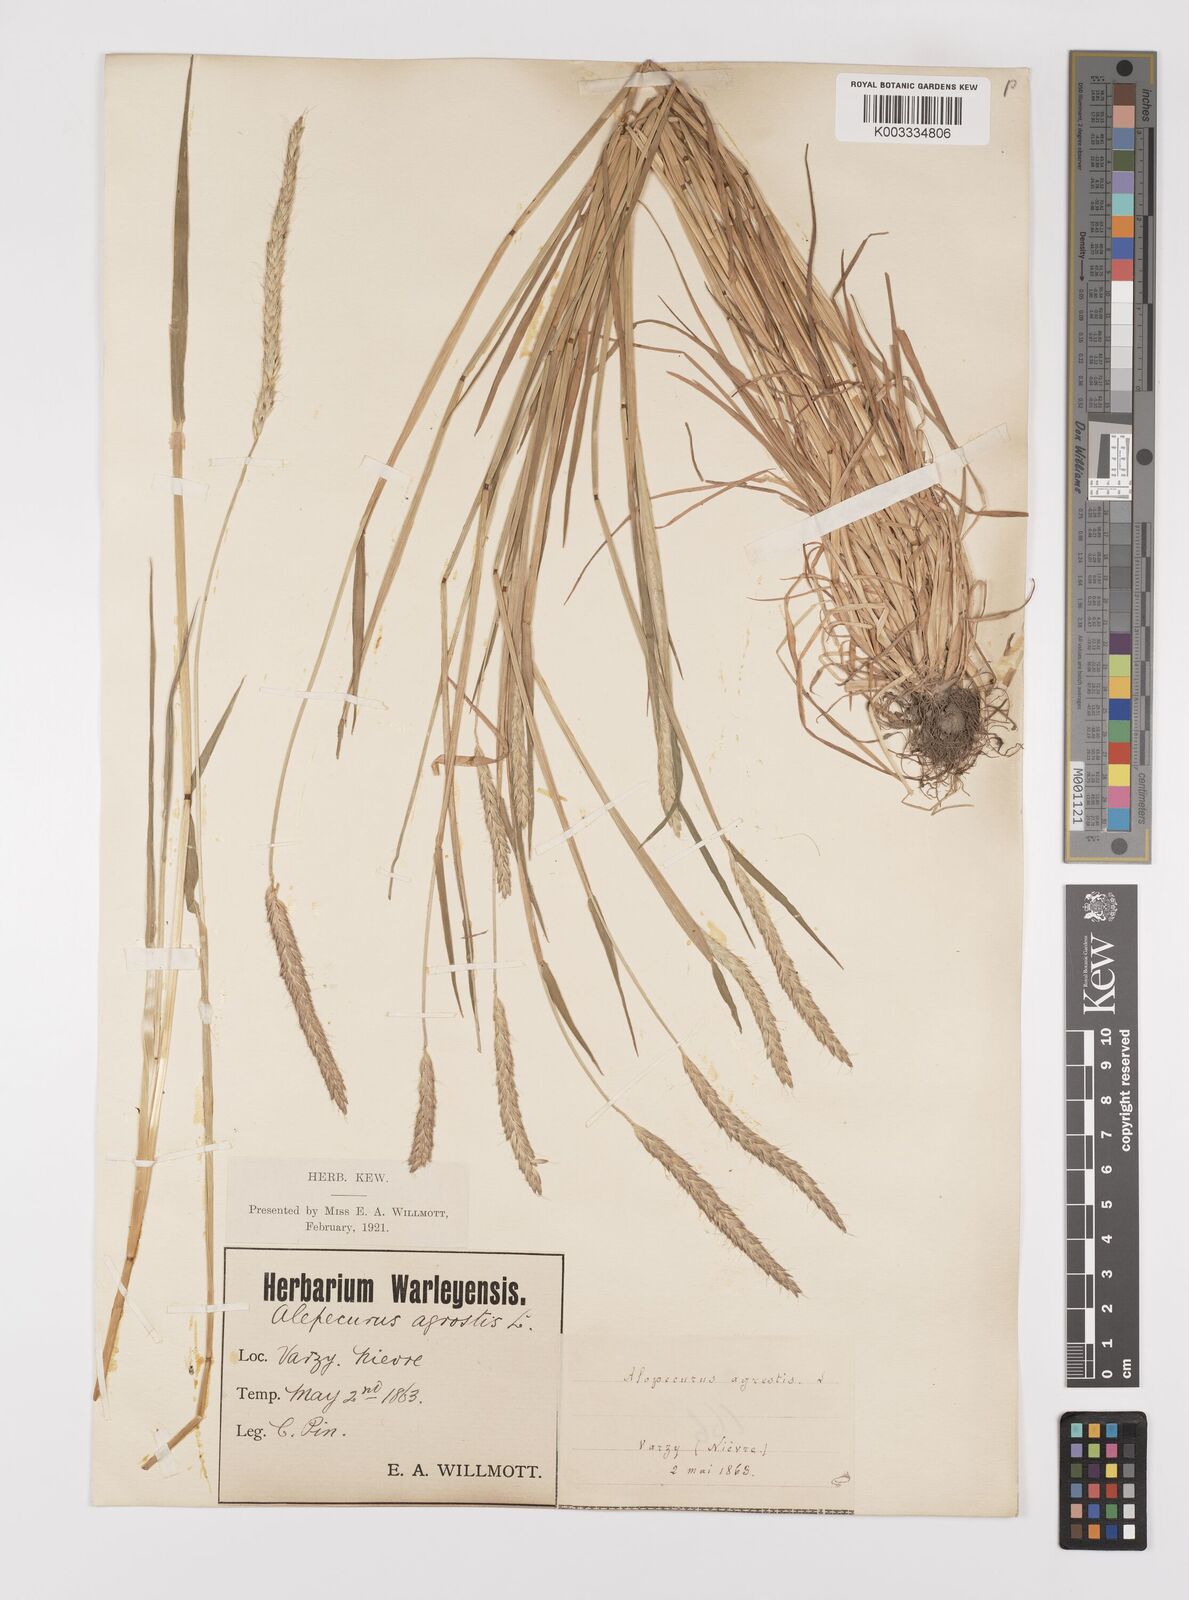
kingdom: Plantae
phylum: Tracheophyta
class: Liliopsida
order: Poales
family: Poaceae
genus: Alopecurus
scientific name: Alopecurus myosuroides
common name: Black-grass
